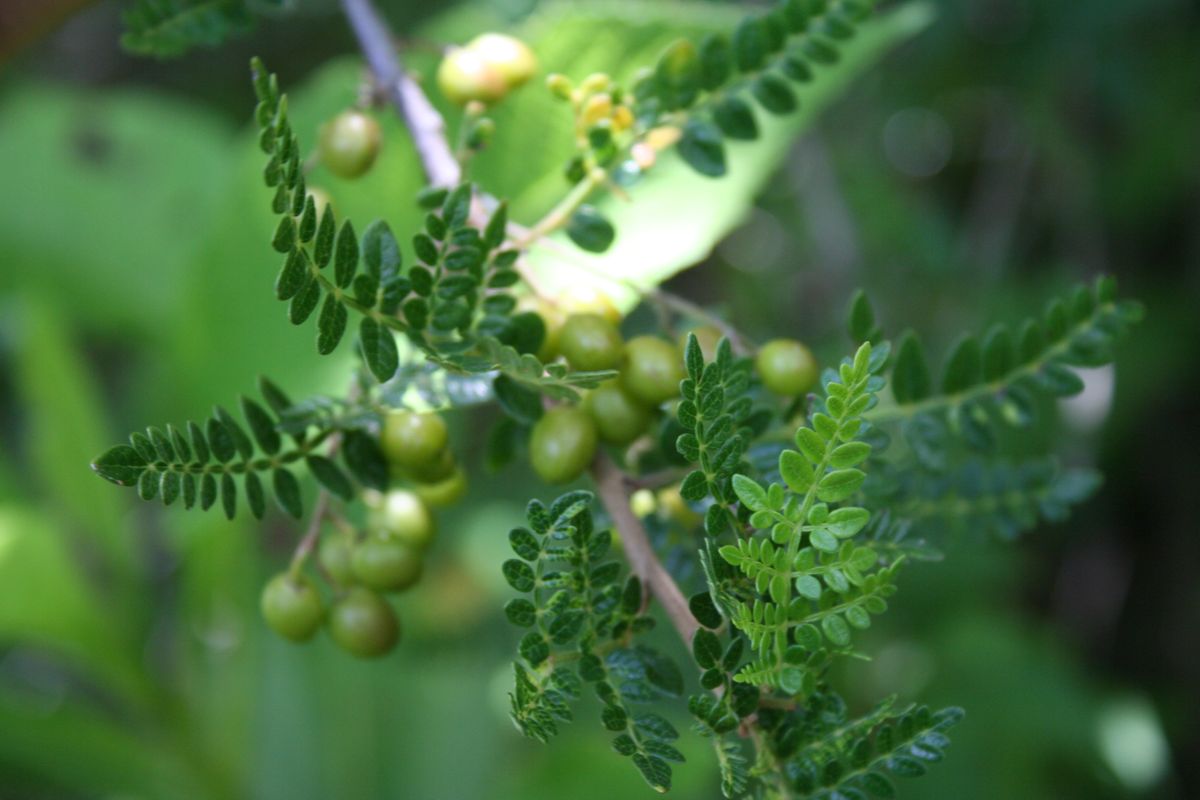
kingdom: Plantae
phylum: Tracheophyta
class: Magnoliopsida
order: Sapindales
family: Burseraceae
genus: Bursera
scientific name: Bursera bipinnata
